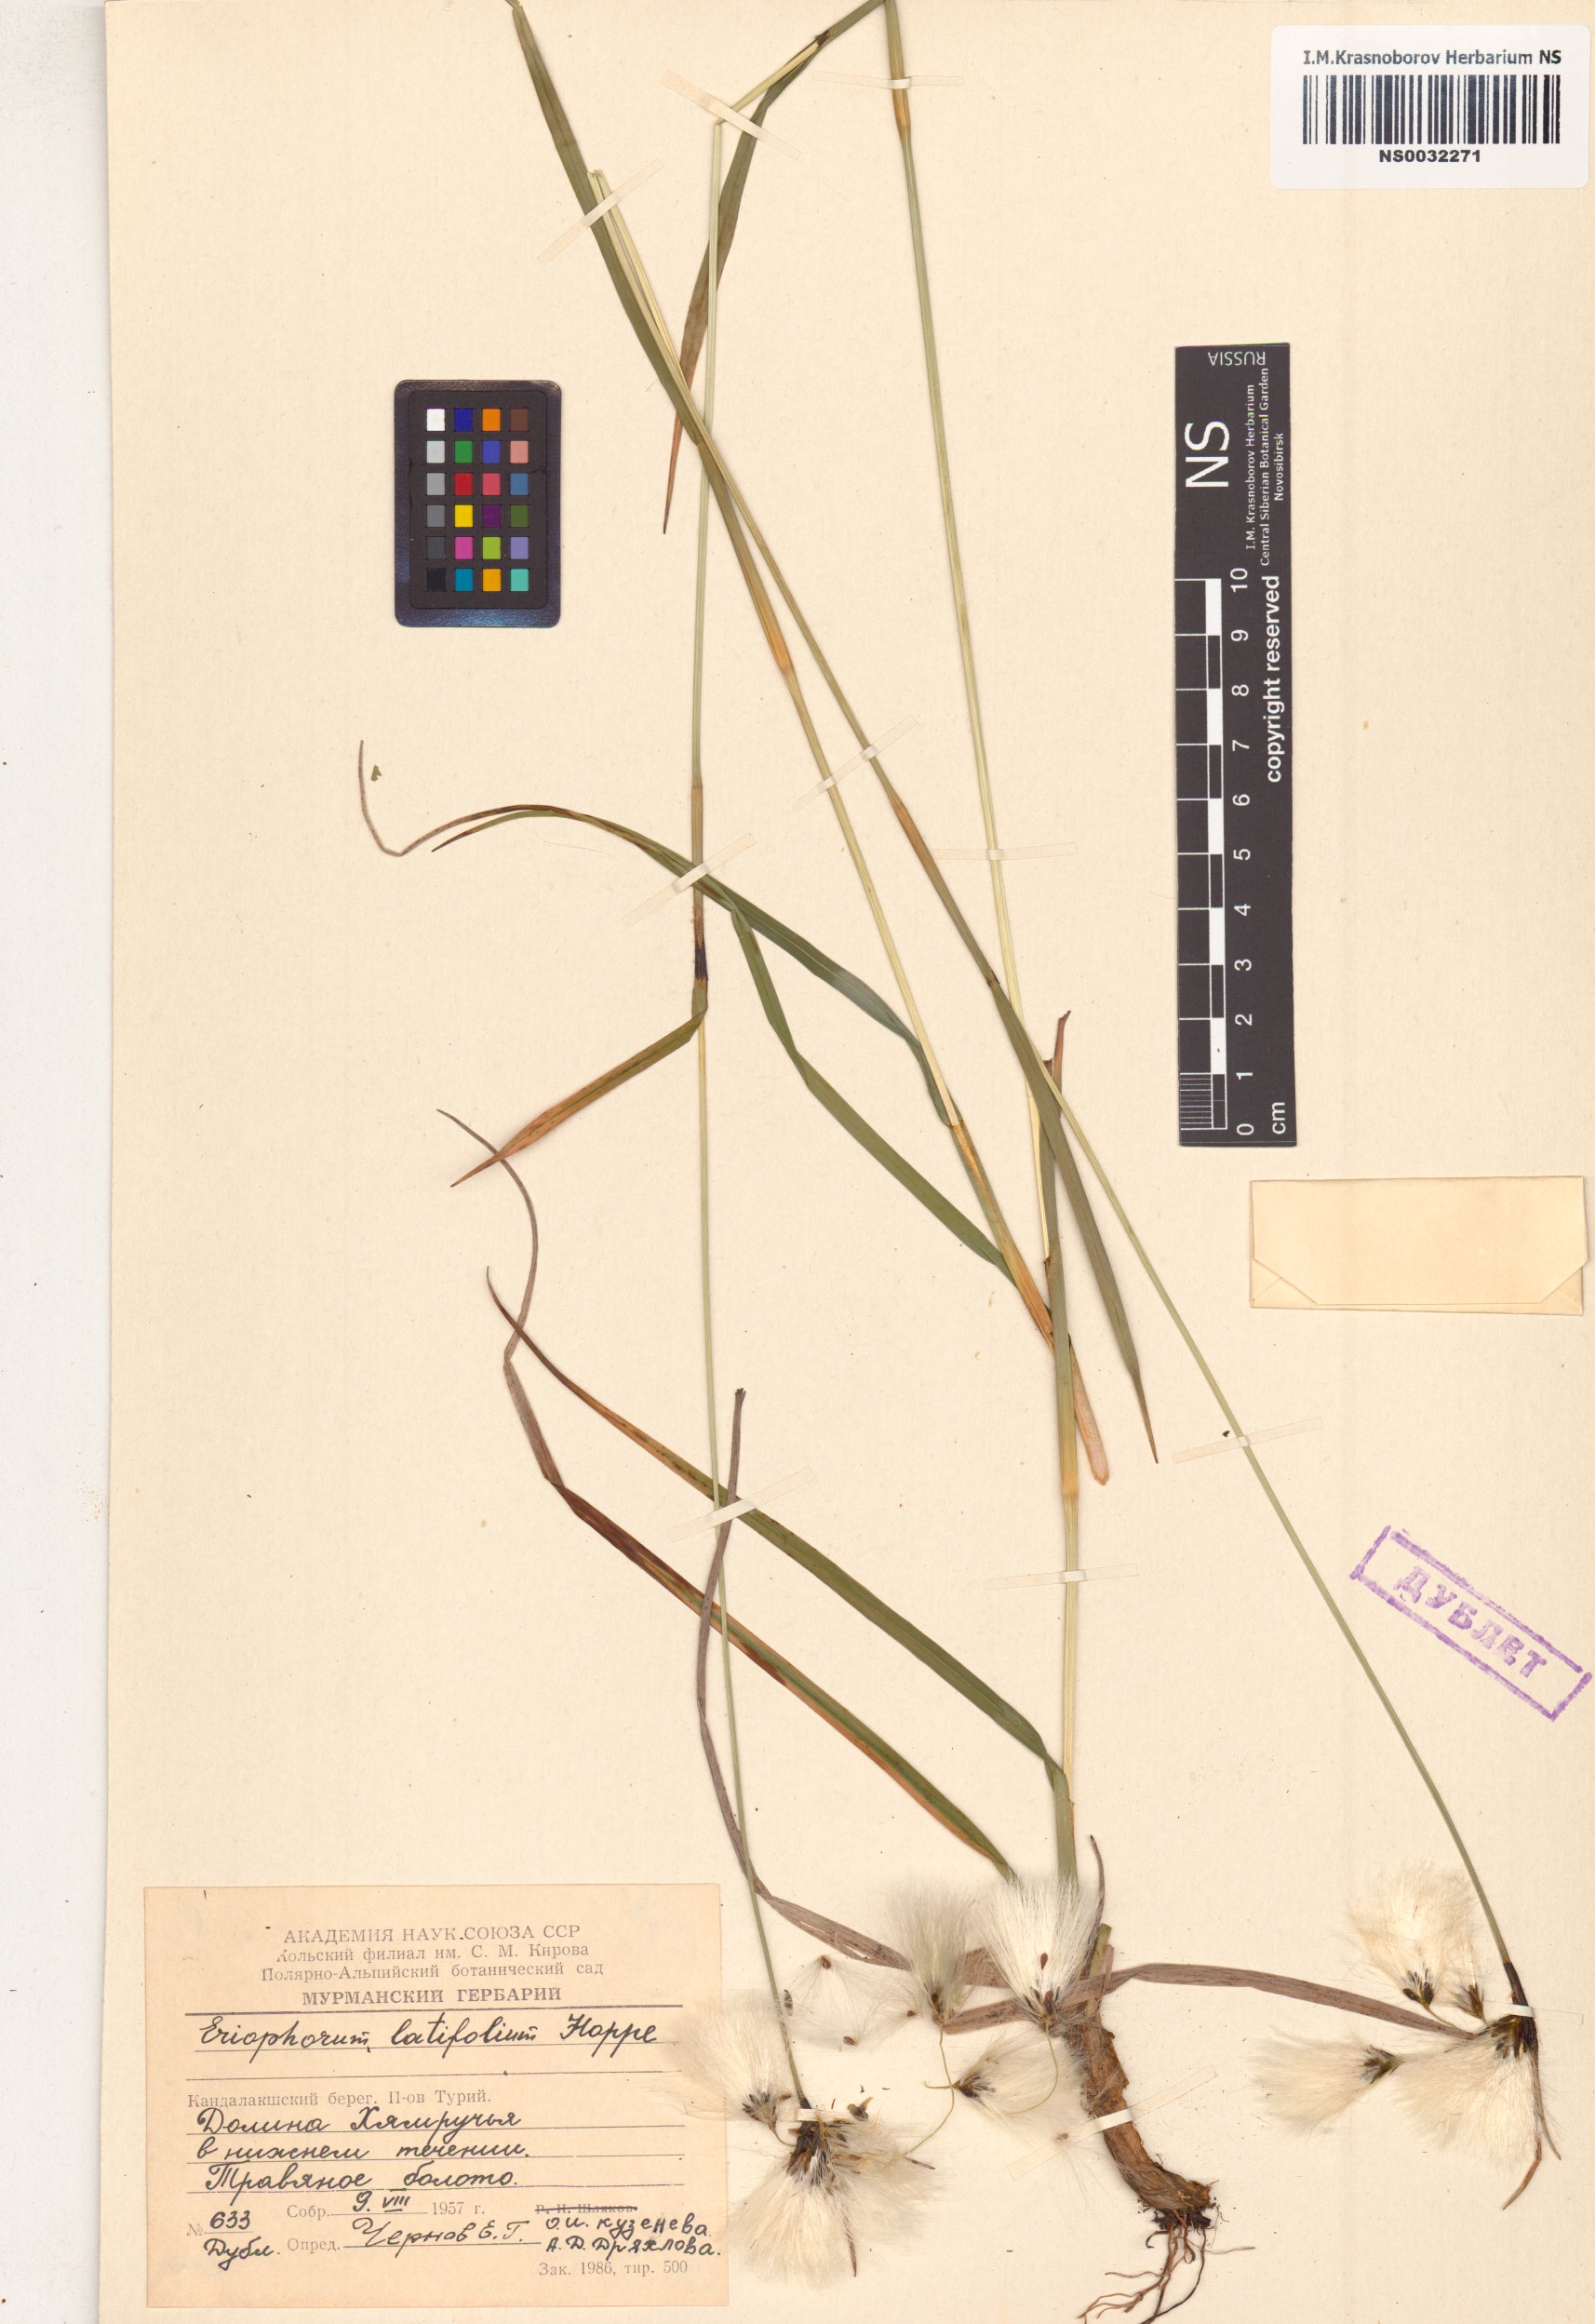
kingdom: Plantae
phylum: Tracheophyta
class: Liliopsida
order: Poales
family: Cyperaceae
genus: Eriophorum
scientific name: Eriophorum latifolium
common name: Broad-leaved cottongrass
